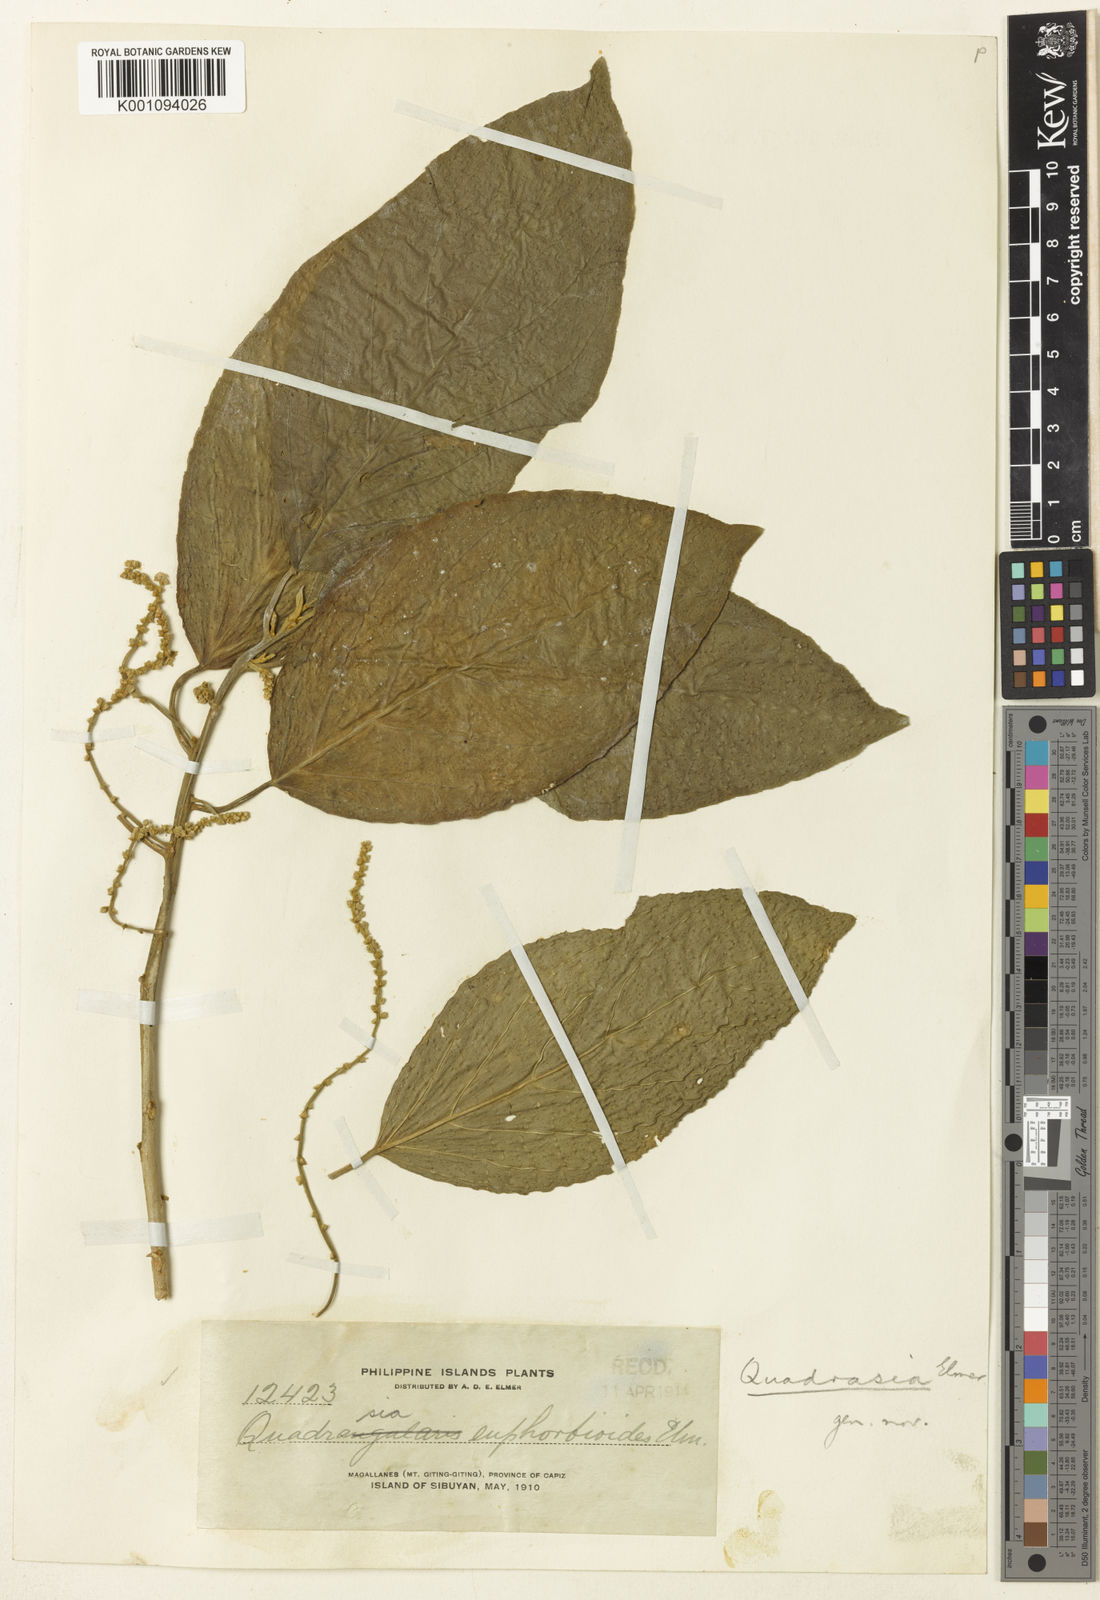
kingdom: Plantae
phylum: Tracheophyta
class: Magnoliopsida
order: Malpighiales
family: Euphorbiaceae
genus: Claoxylon
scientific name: Claoxylon euphorbioides
